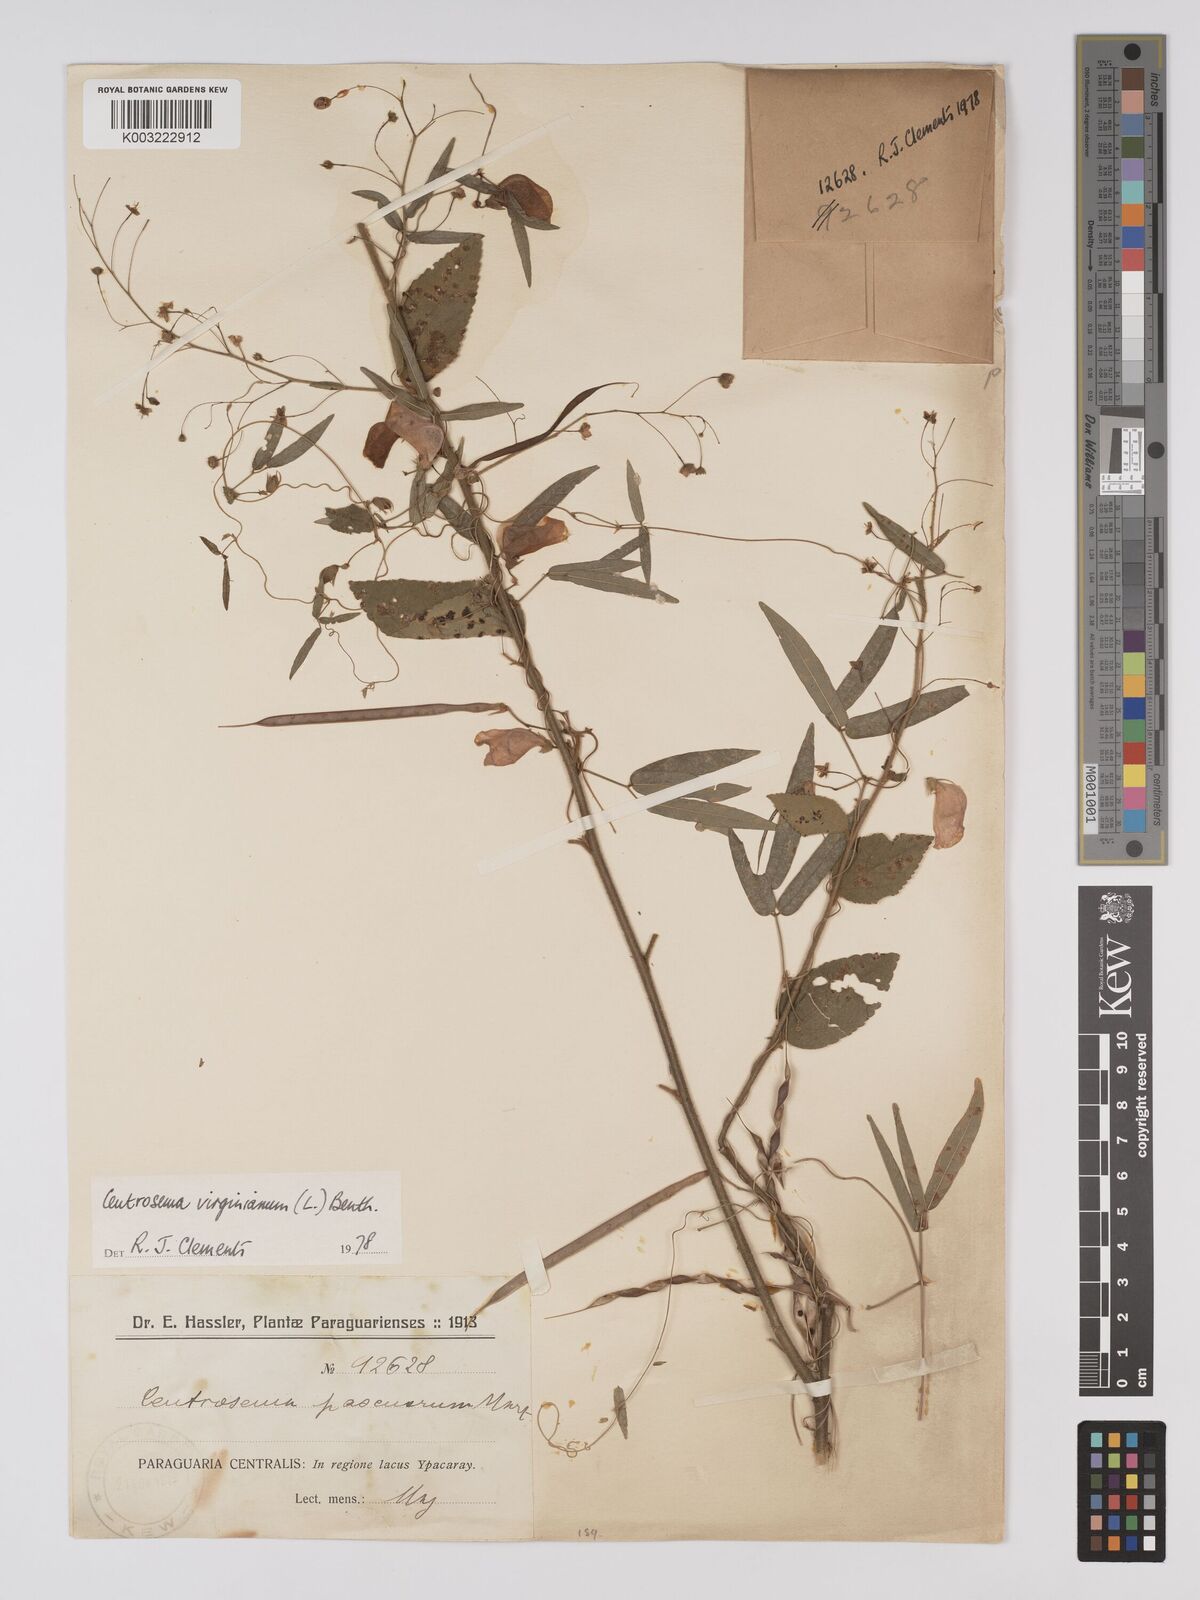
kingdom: Plantae
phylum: Tracheophyta
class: Magnoliopsida
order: Fabales
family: Fabaceae
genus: Centrosema
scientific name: Centrosema virginianum
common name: Butterfly-pea
